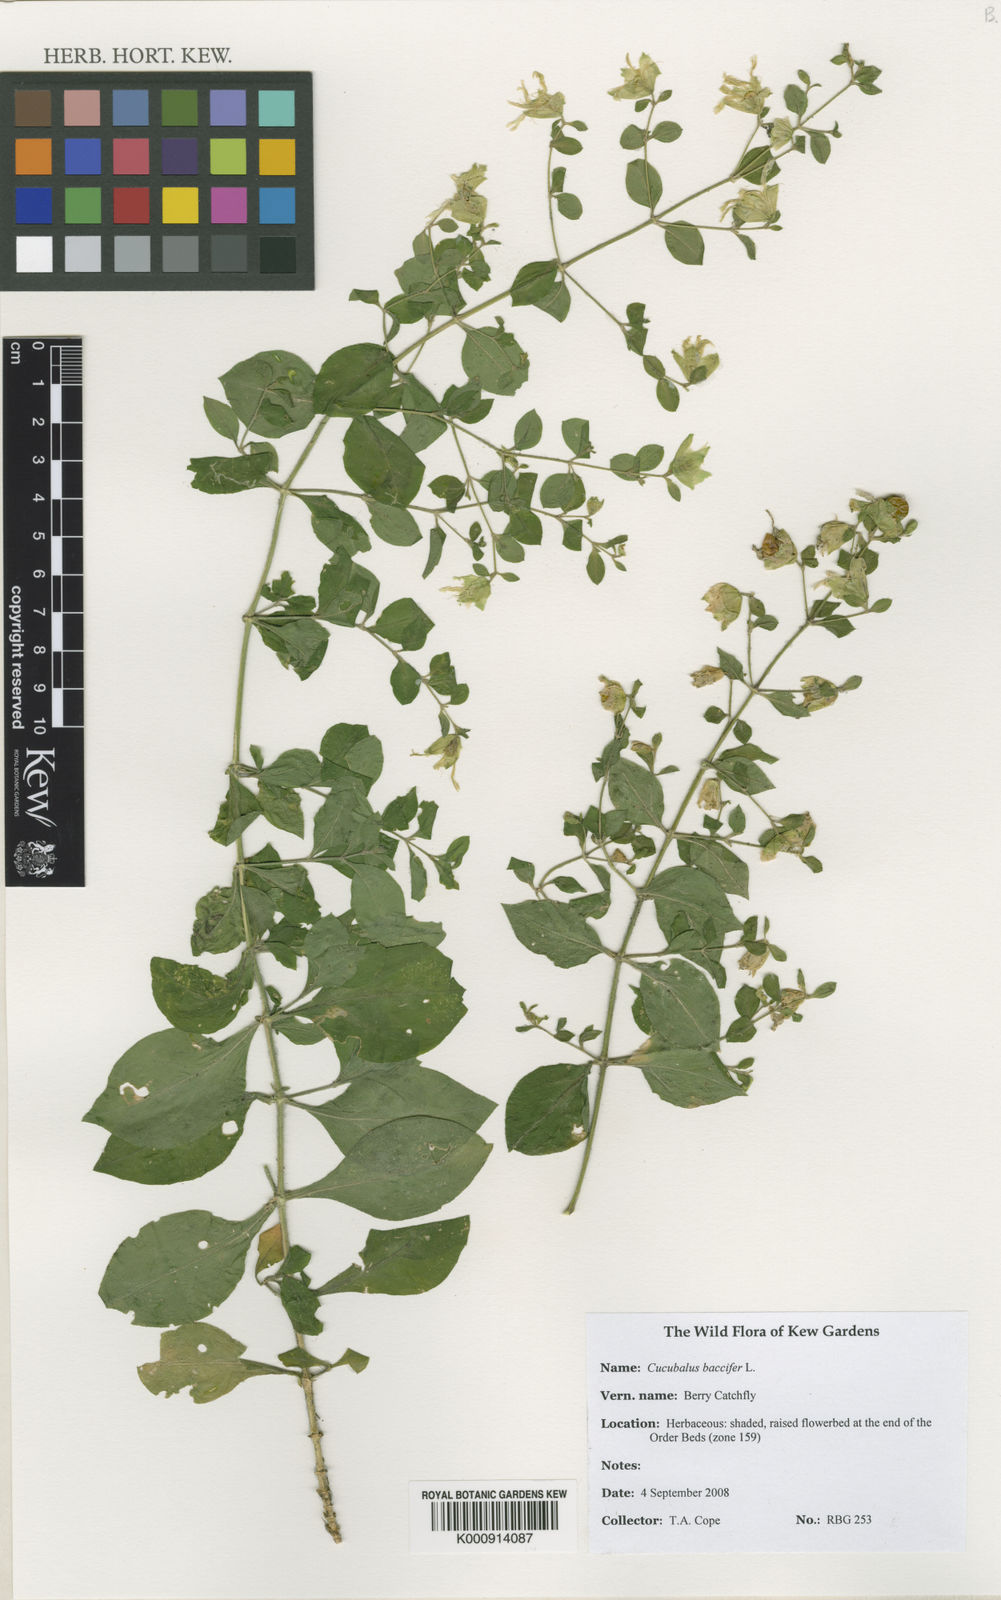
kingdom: Plantae
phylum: Tracheophyta
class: Magnoliopsida
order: Caryophyllales
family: Caryophyllaceae
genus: Silene
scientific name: Silene baccifera
